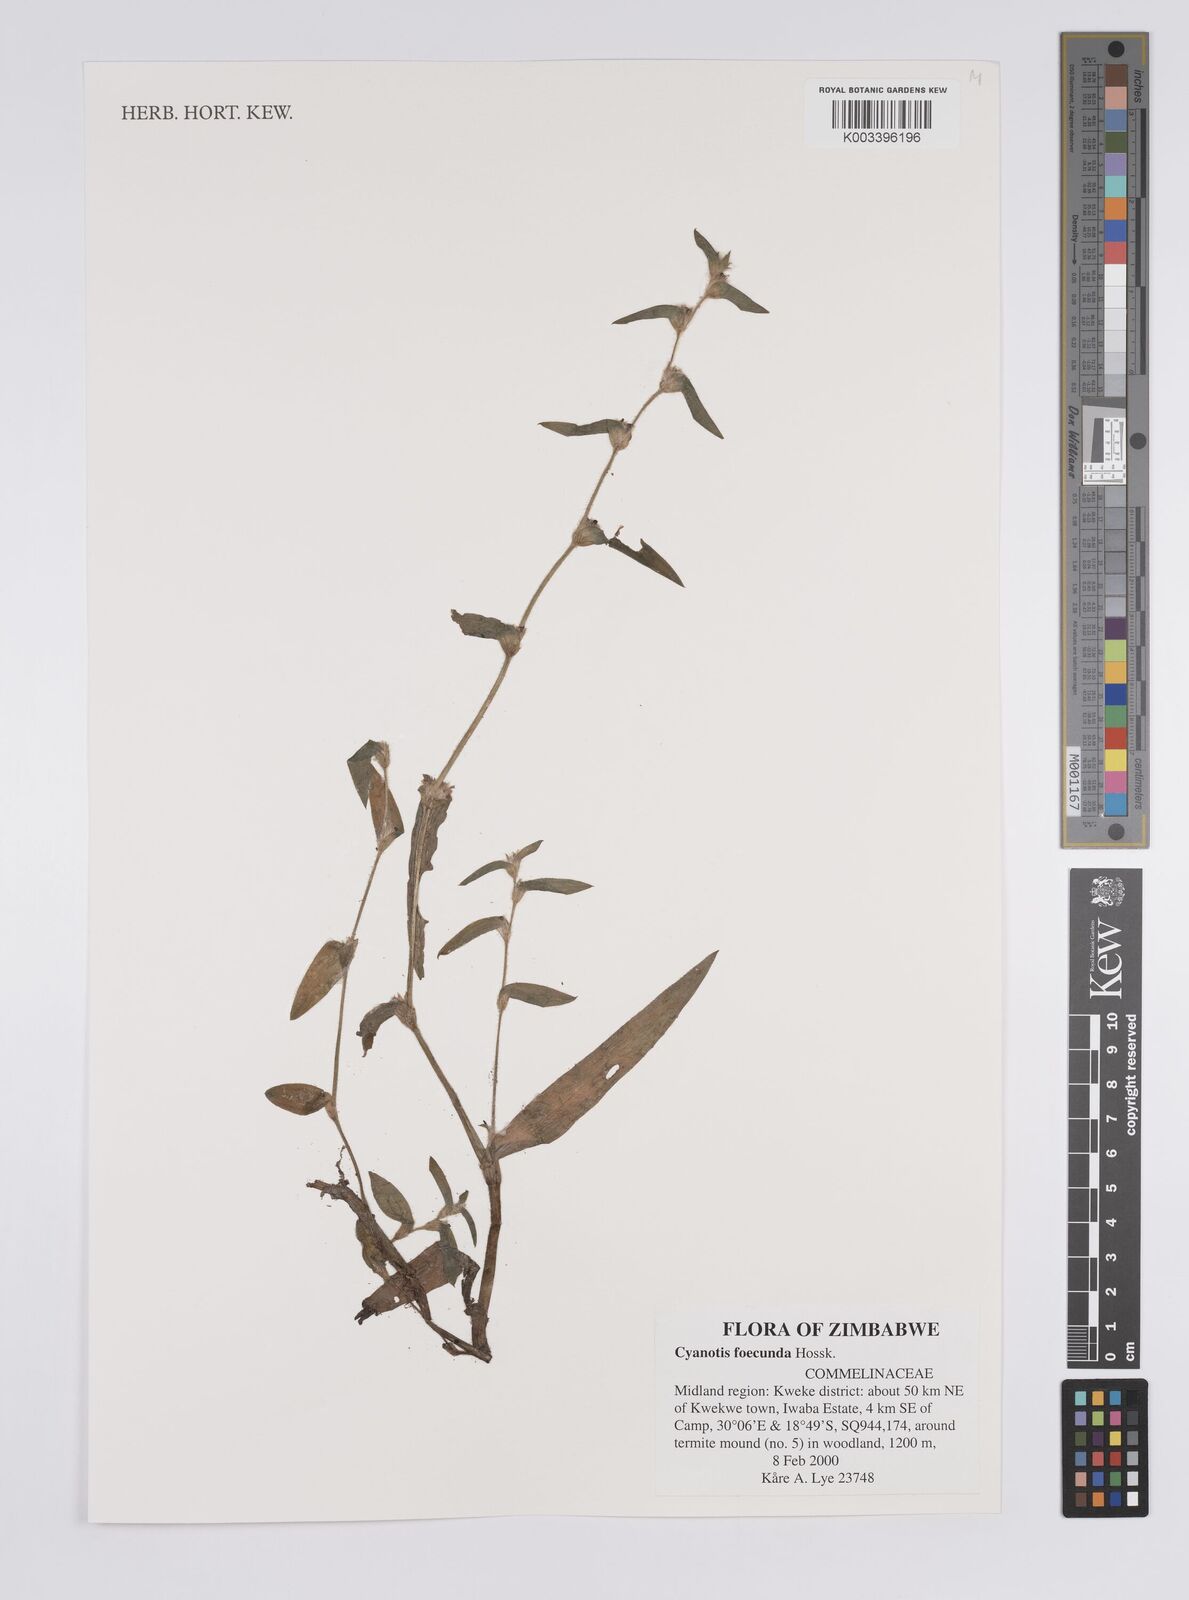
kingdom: Plantae
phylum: Tracheophyta
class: Liliopsida
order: Commelinales
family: Commelinaceae
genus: Cyanotis
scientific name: Cyanotis foecunda
